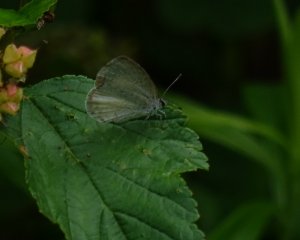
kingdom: Animalia
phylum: Arthropoda
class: Insecta
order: Lepidoptera
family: Lycaenidae
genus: Celastrina
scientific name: Celastrina serotina
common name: Cherry Gall Azure
